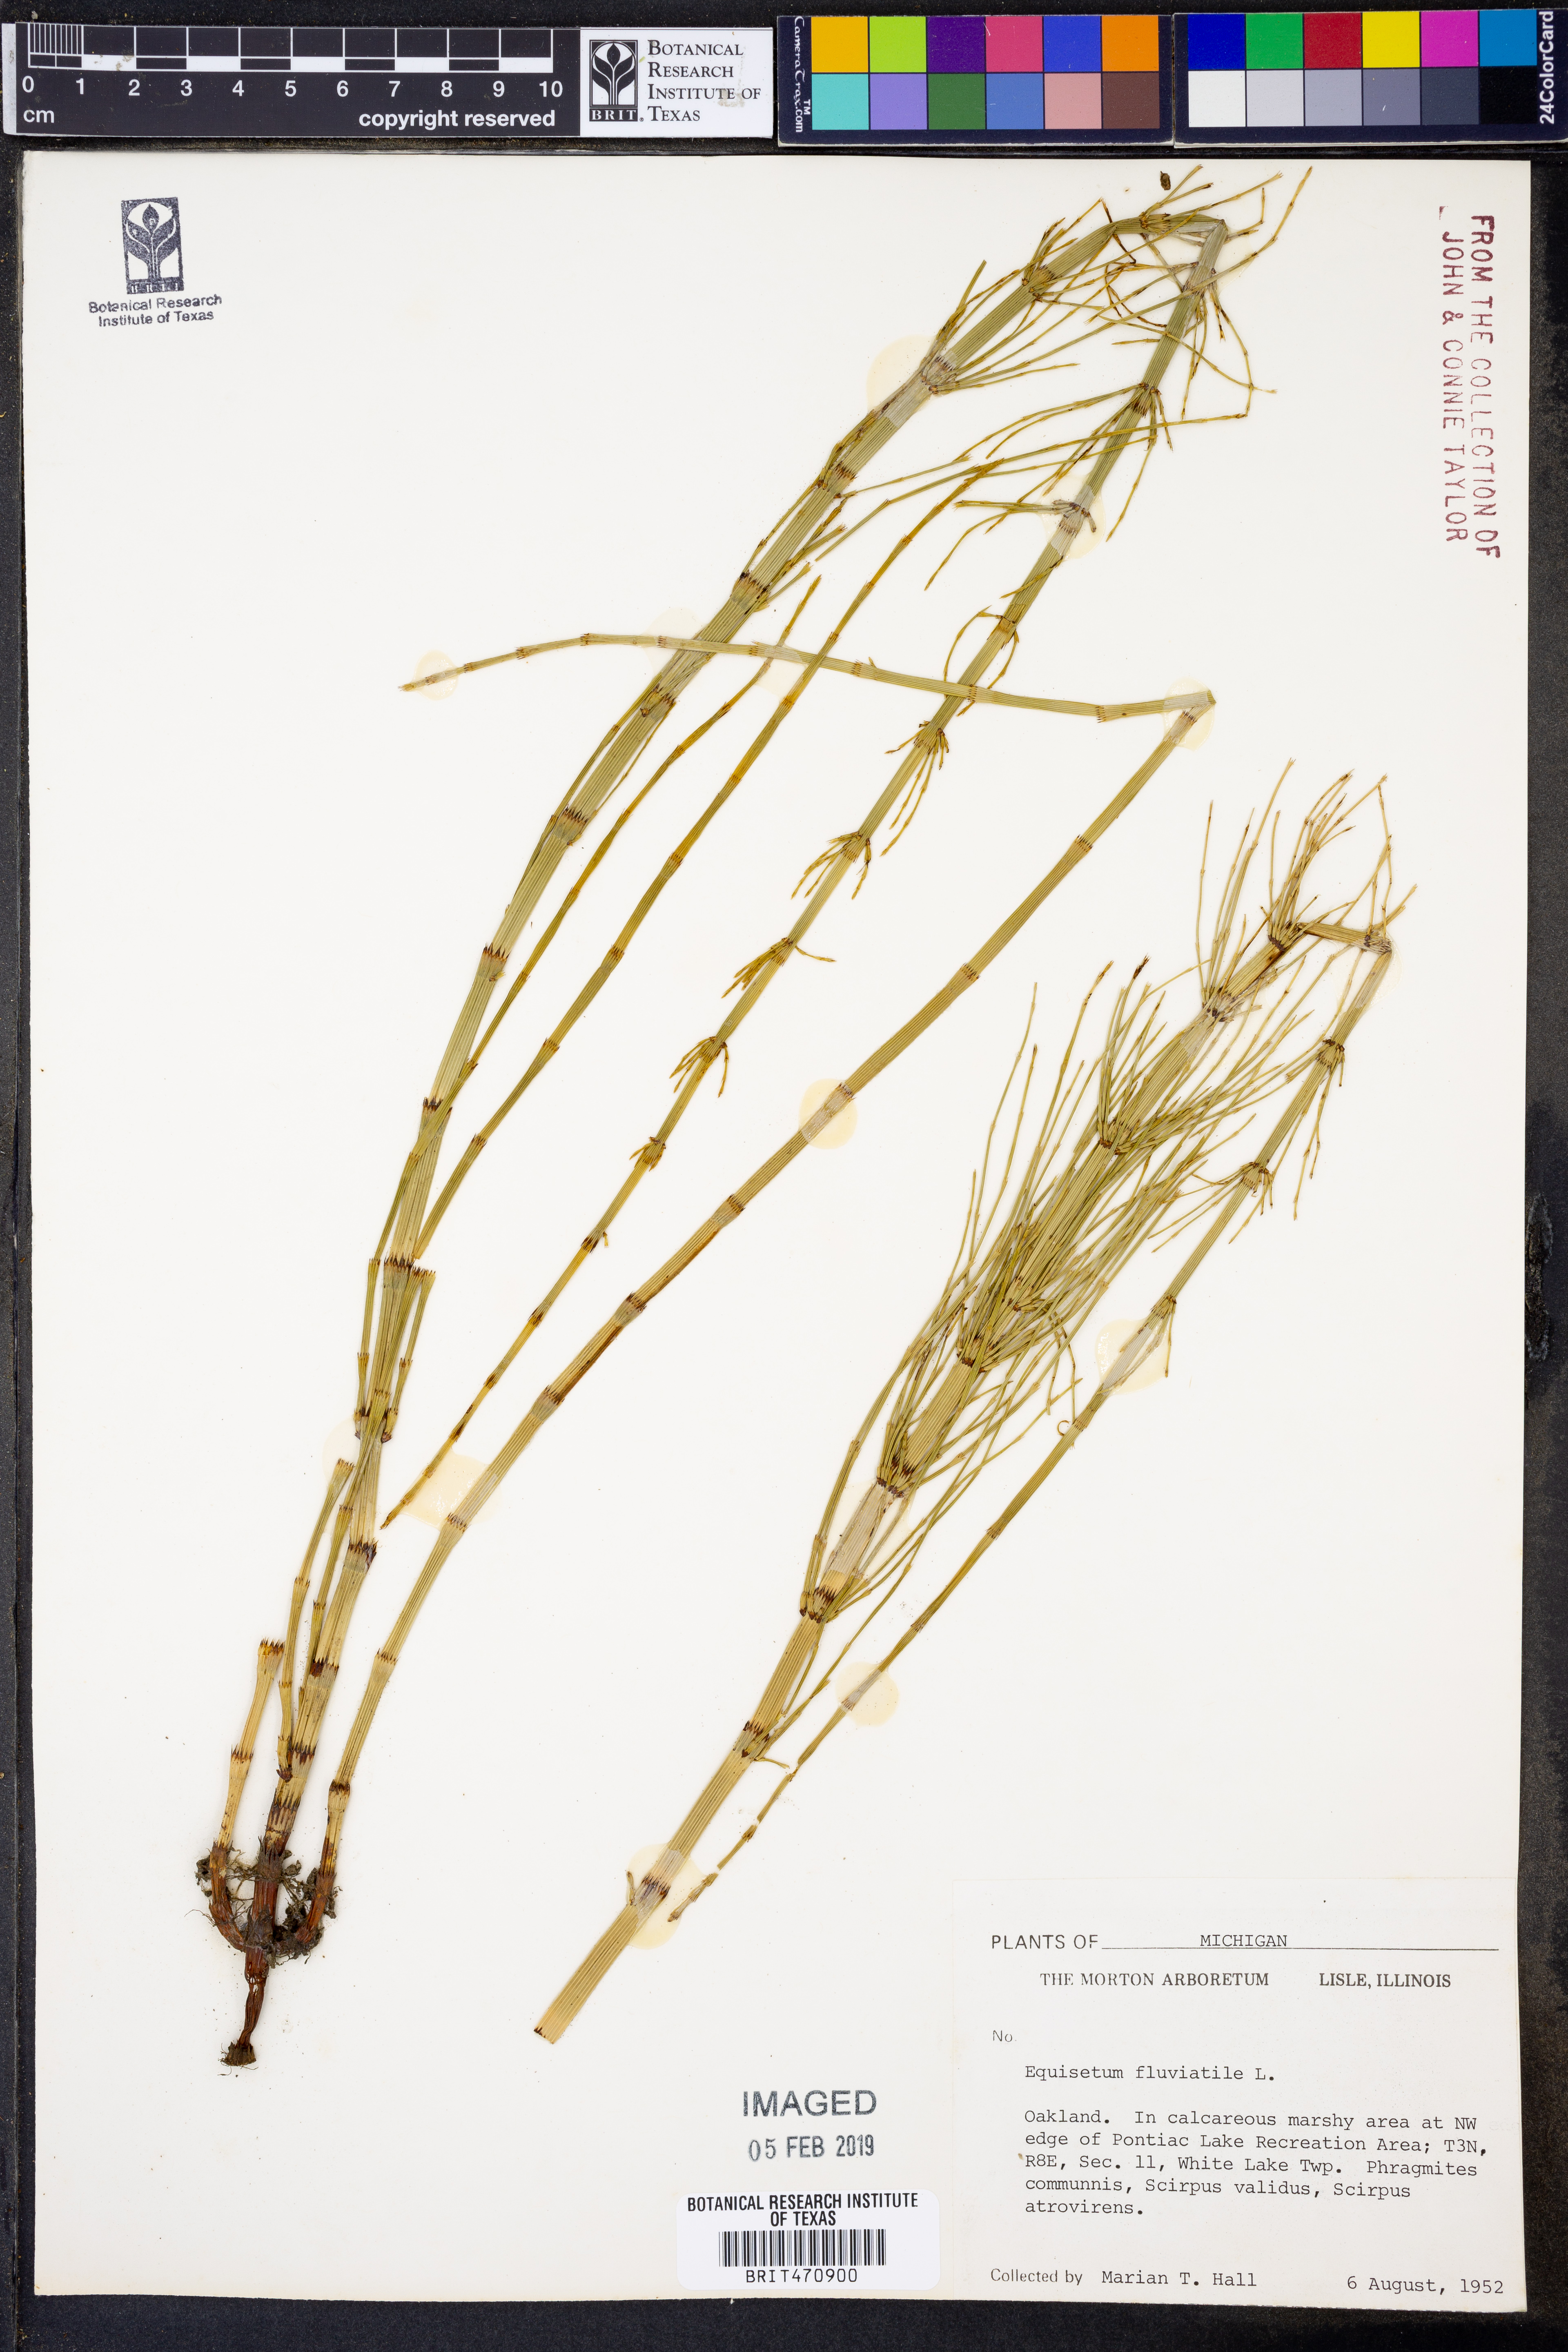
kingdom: Plantae
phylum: Tracheophyta
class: Polypodiopsida
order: Equisetales
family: Equisetaceae
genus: Equisetum
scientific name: Equisetum fluviatile
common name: Water horsetail
